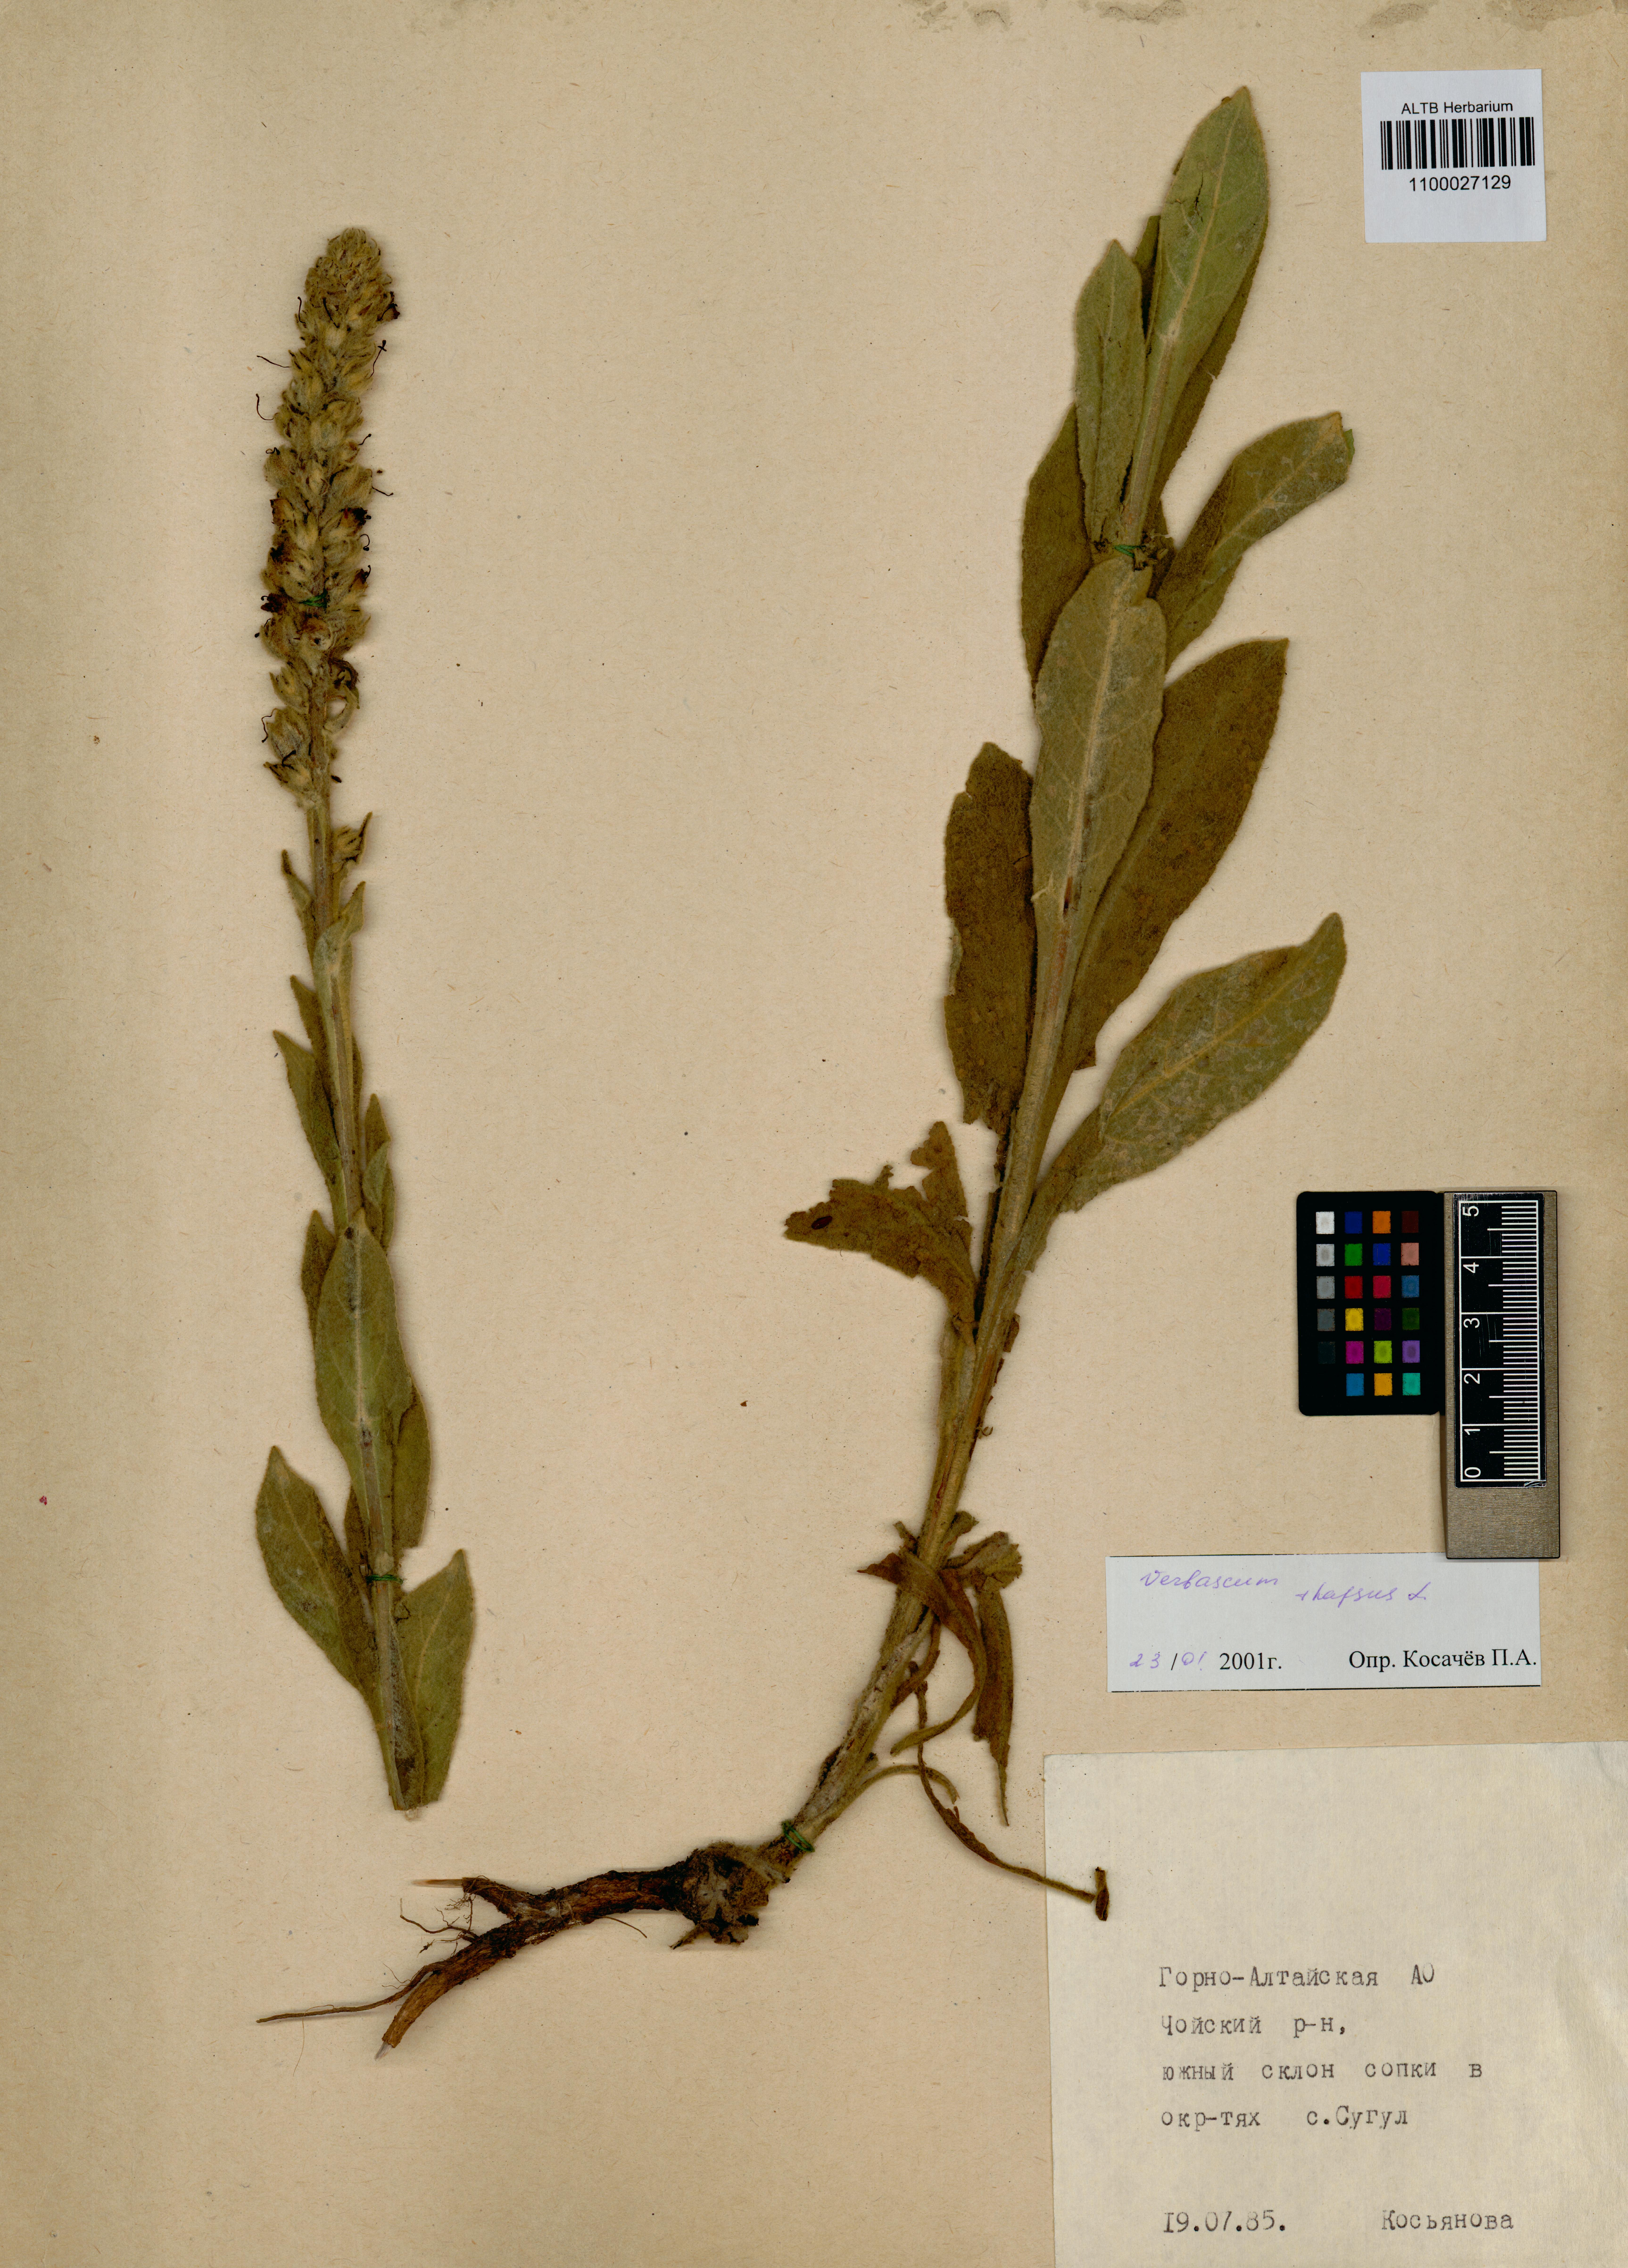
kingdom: Plantae
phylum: Tracheophyta
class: Magnoliopsida
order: Lamiales
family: Scrophulariaceae
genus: Verbascum
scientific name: Verbascum thapsus
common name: Common mullein
